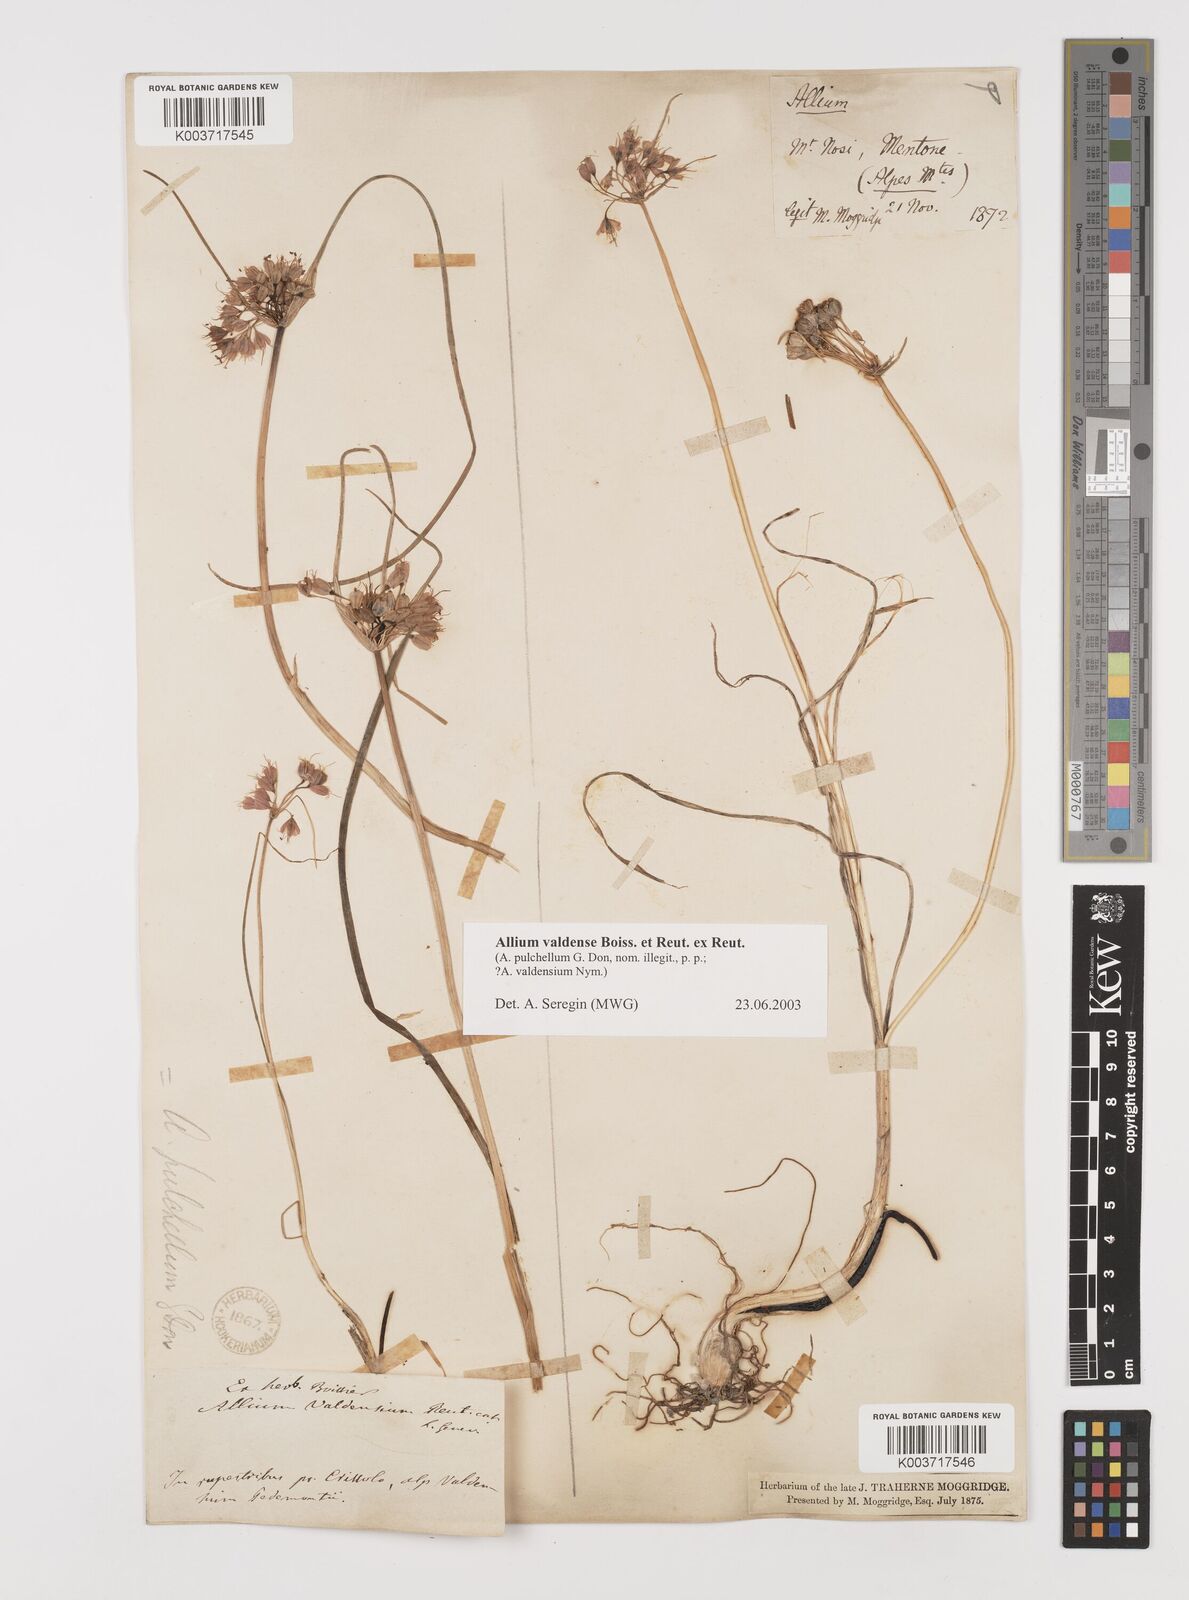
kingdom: Plantae
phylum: Tracheophyta
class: Liliopsida
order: Asparagales
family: Amaryllidaceae
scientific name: Amaryllidaceae
